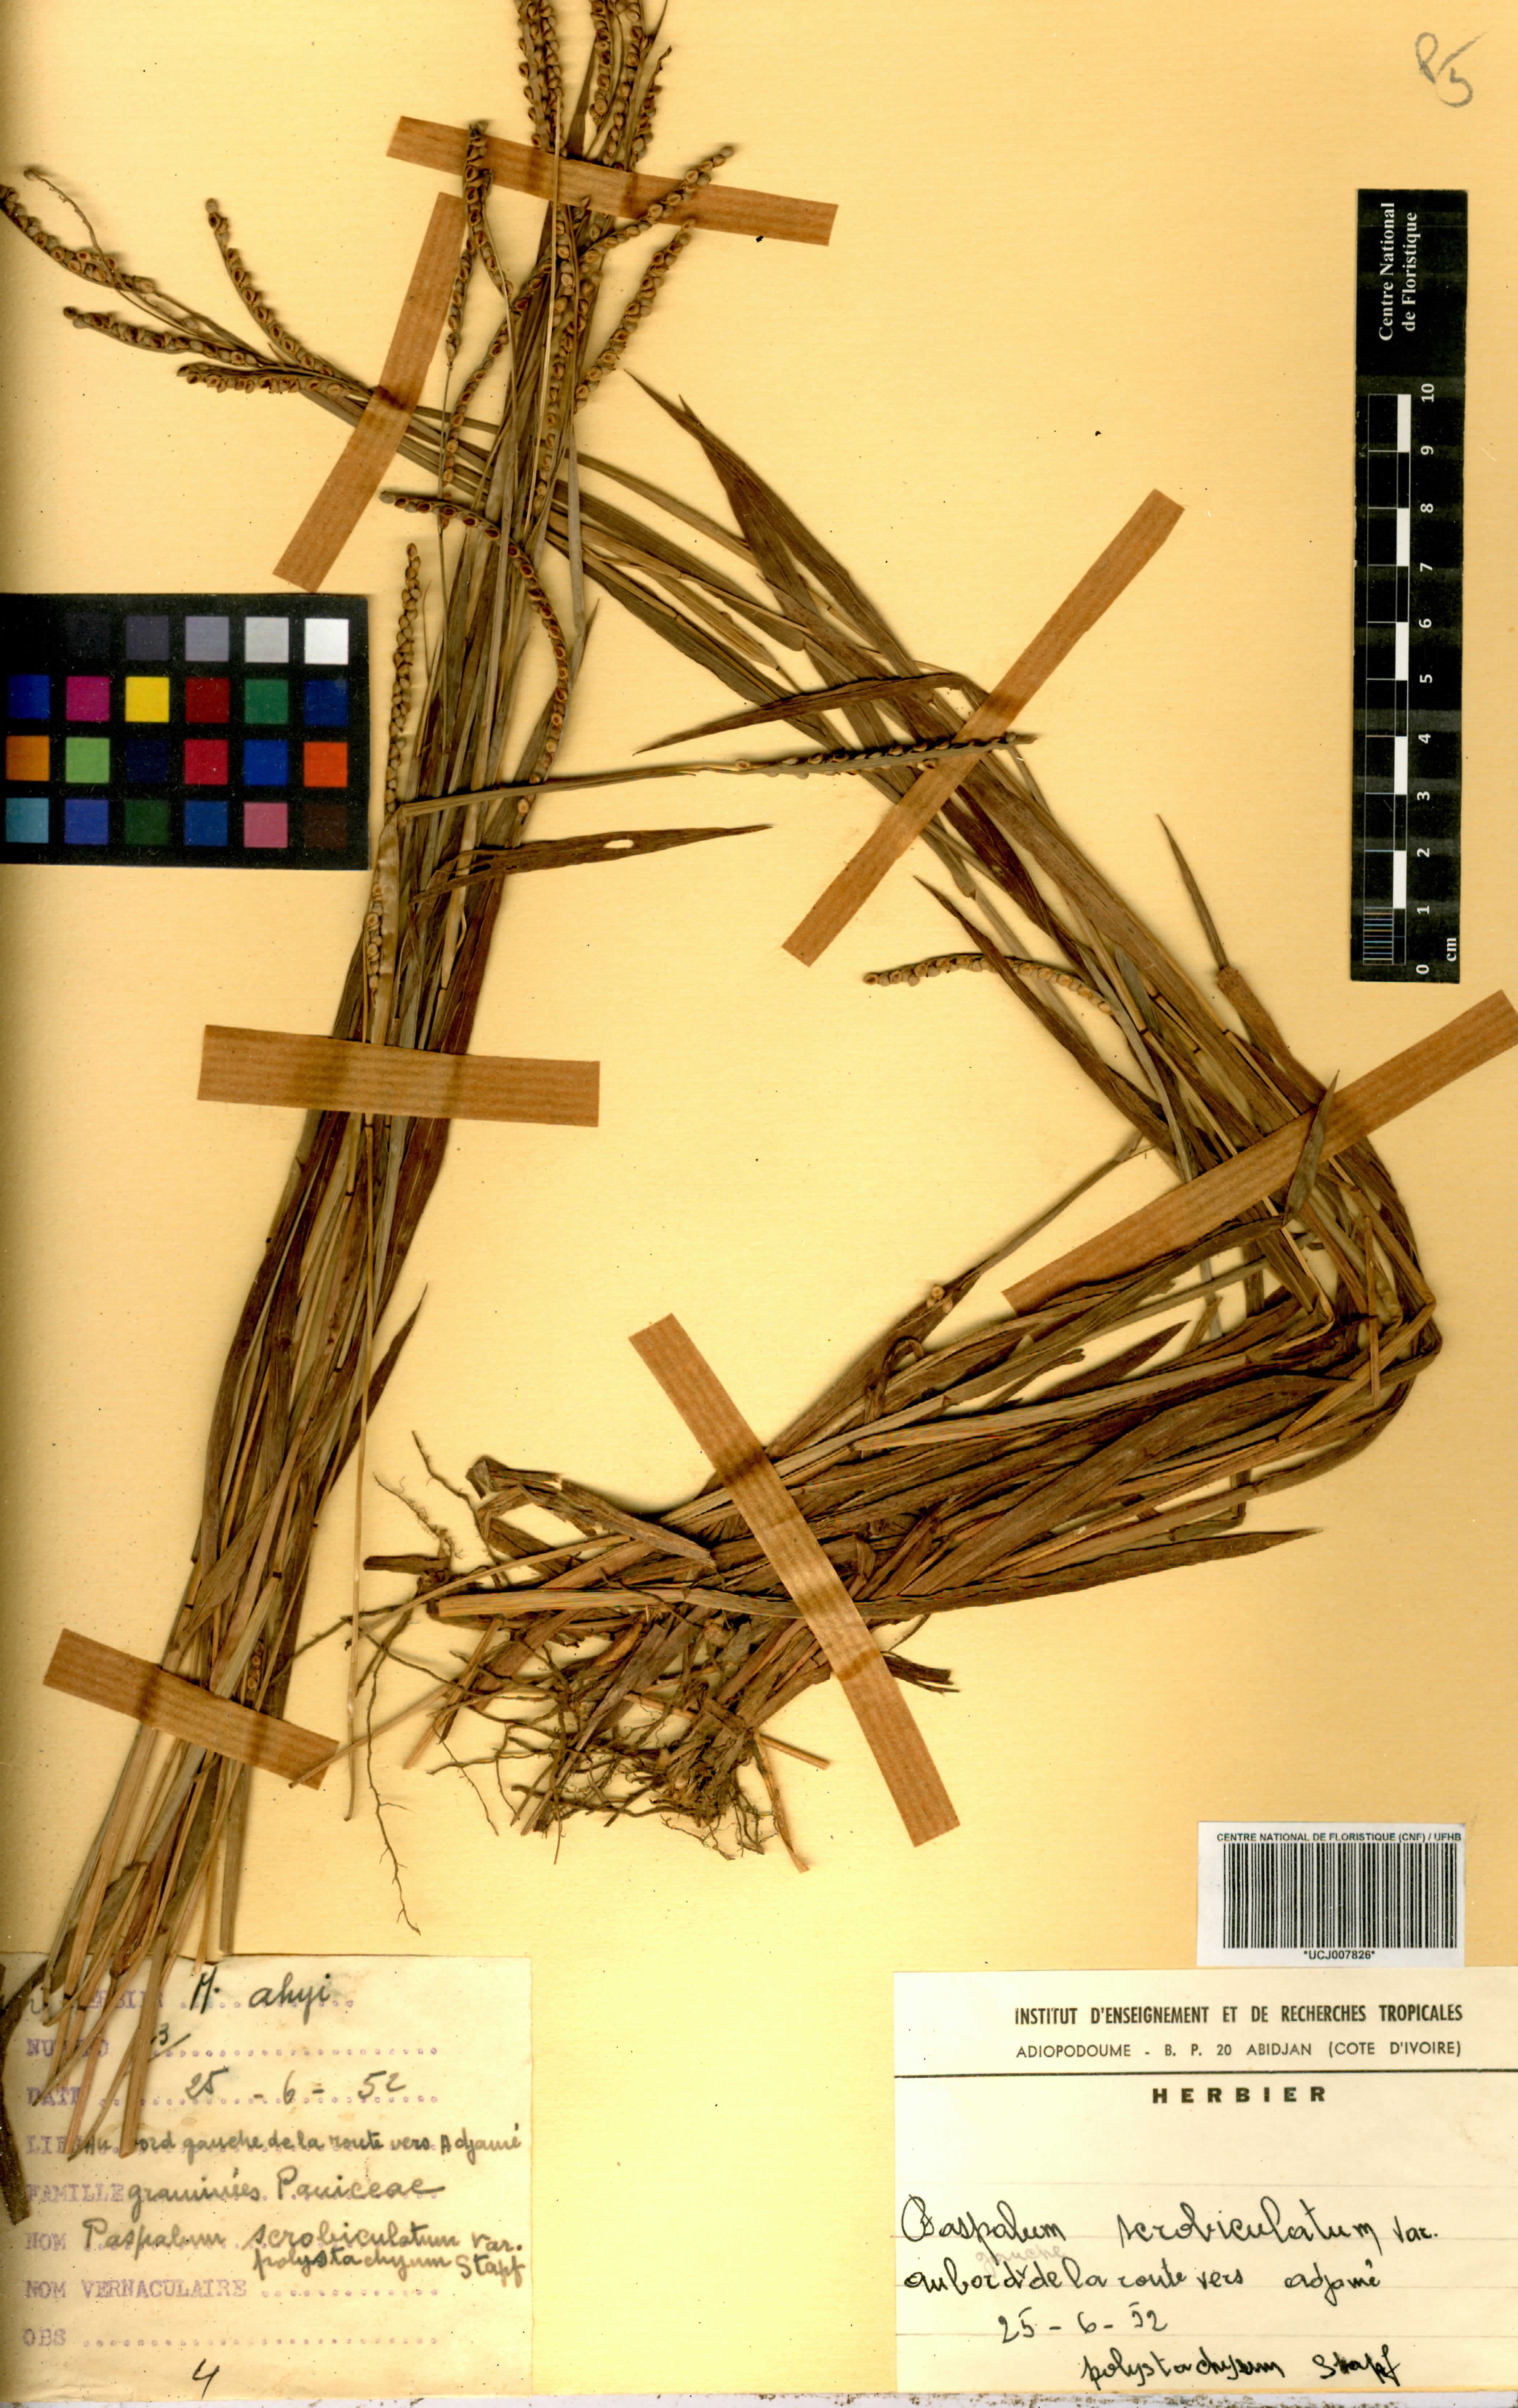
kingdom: Plantae
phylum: Tracheophyta
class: Liliopsida
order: Poales
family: Poaceae
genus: Paspalum
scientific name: Paspalum scrobiculatum
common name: Kodo millet
